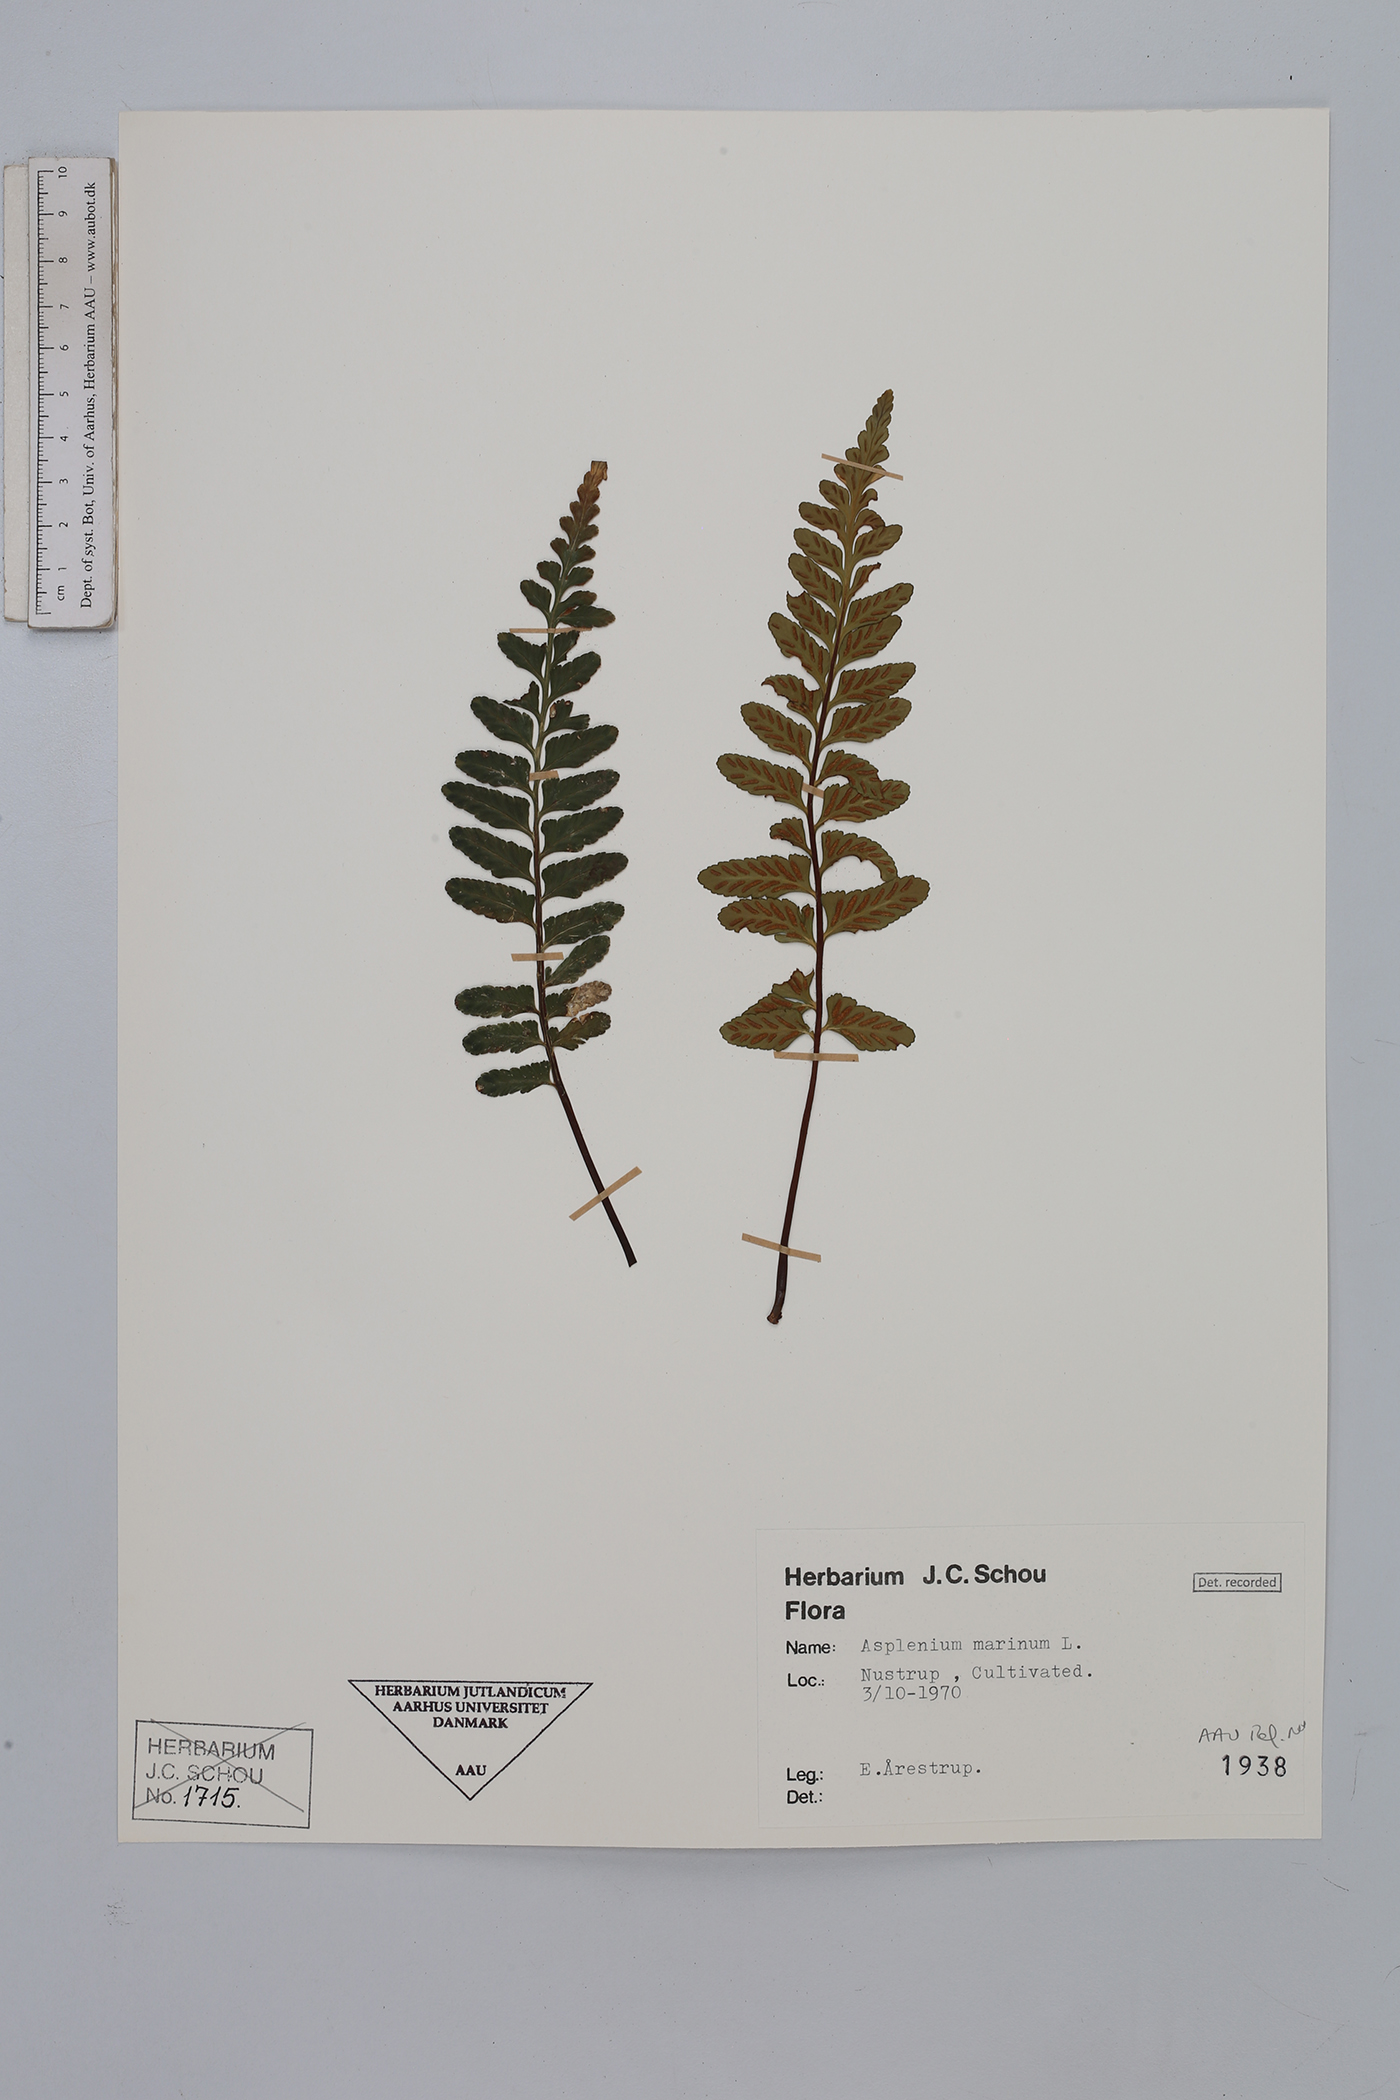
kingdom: Plantae
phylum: Tracheophyta
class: Polypodiopsida
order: Polypodiales
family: Aspleniaceae
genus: Asplenium
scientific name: Asplenium marinum
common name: Sea spleenwort
